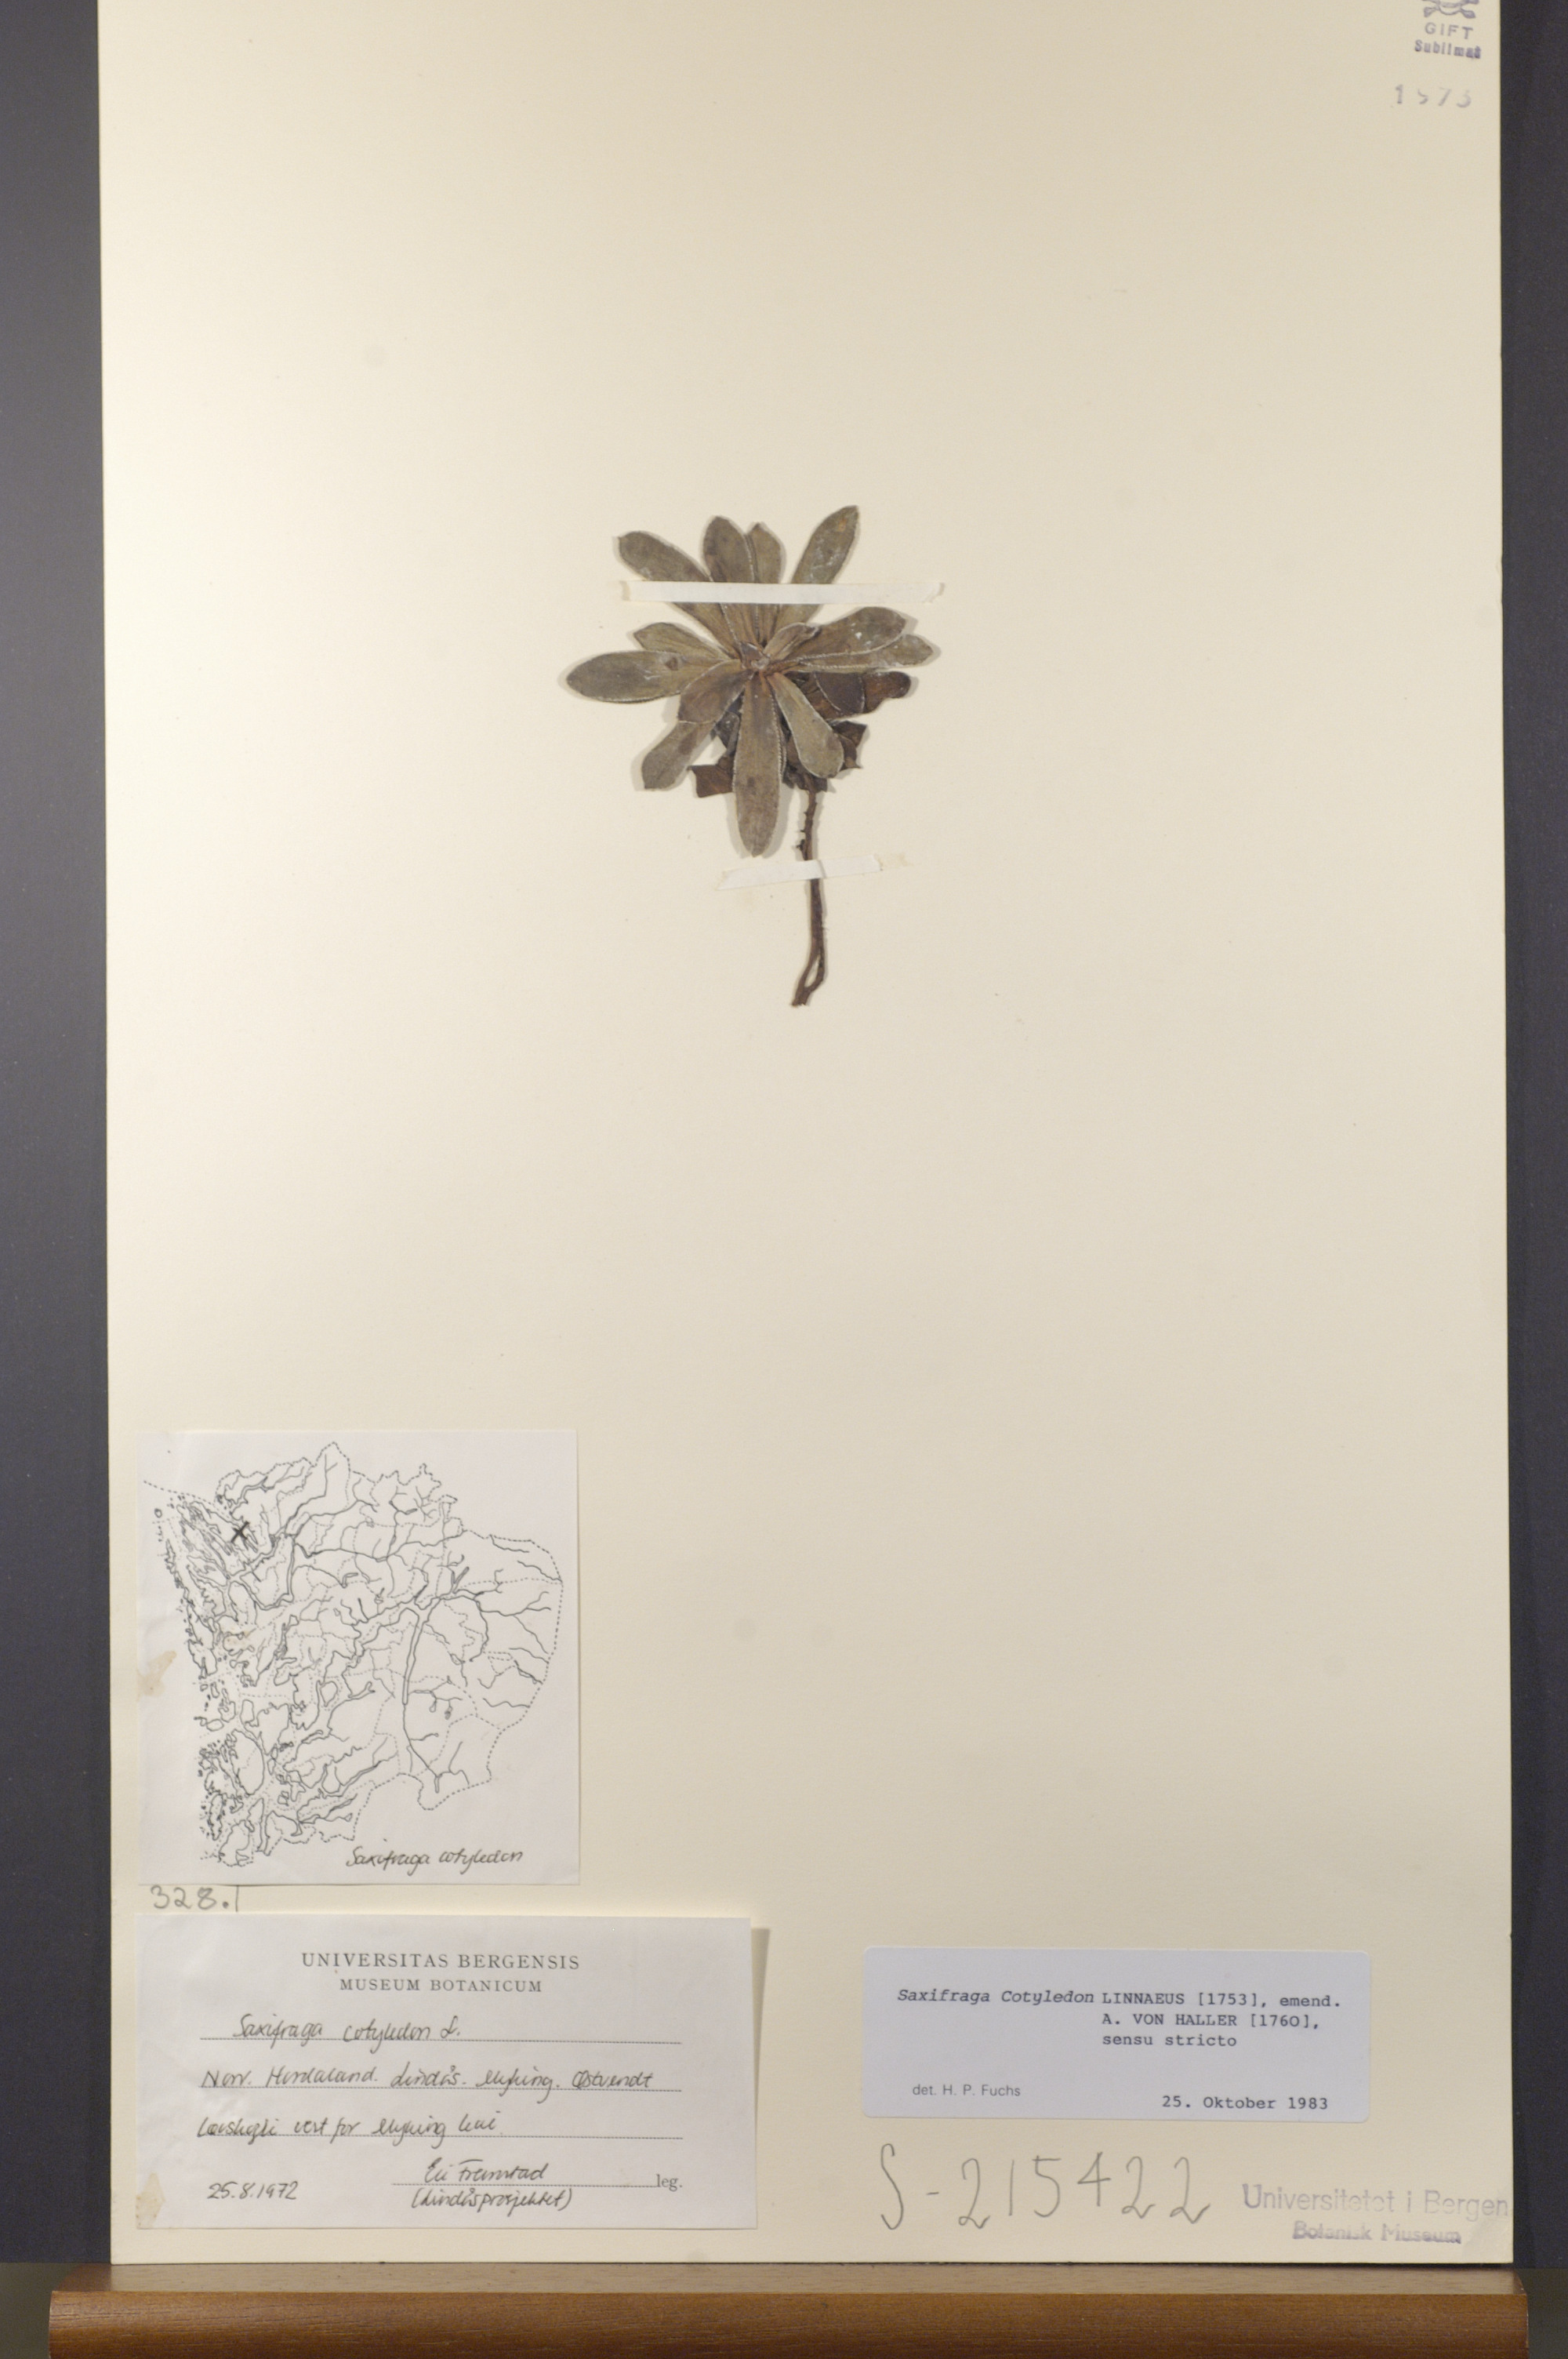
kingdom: Plantae
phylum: Tracheophyta
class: Magnoliopsida
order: Saxifragales
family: Saxifragaceae
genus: Saxifraga
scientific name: Saxifraga cotyledon
